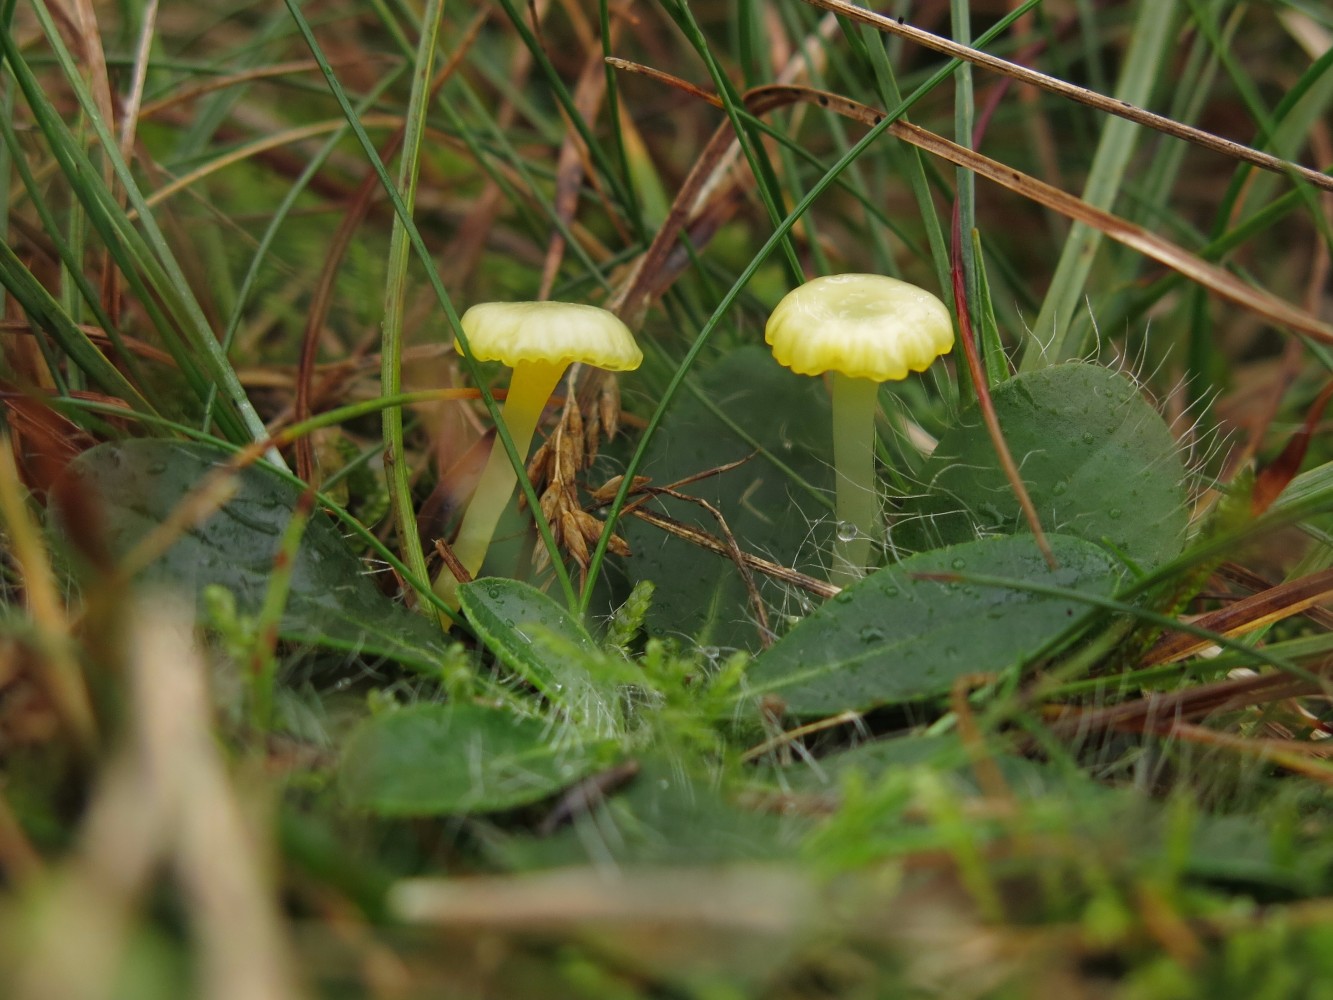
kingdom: Fungi
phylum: Basidiomycota
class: Agaricomycetes
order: Agaricales
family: Hygrophoraceae
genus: Gloioxanthomyces
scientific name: Gloioxanthomyces vitellinus
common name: kromgul vokshat
